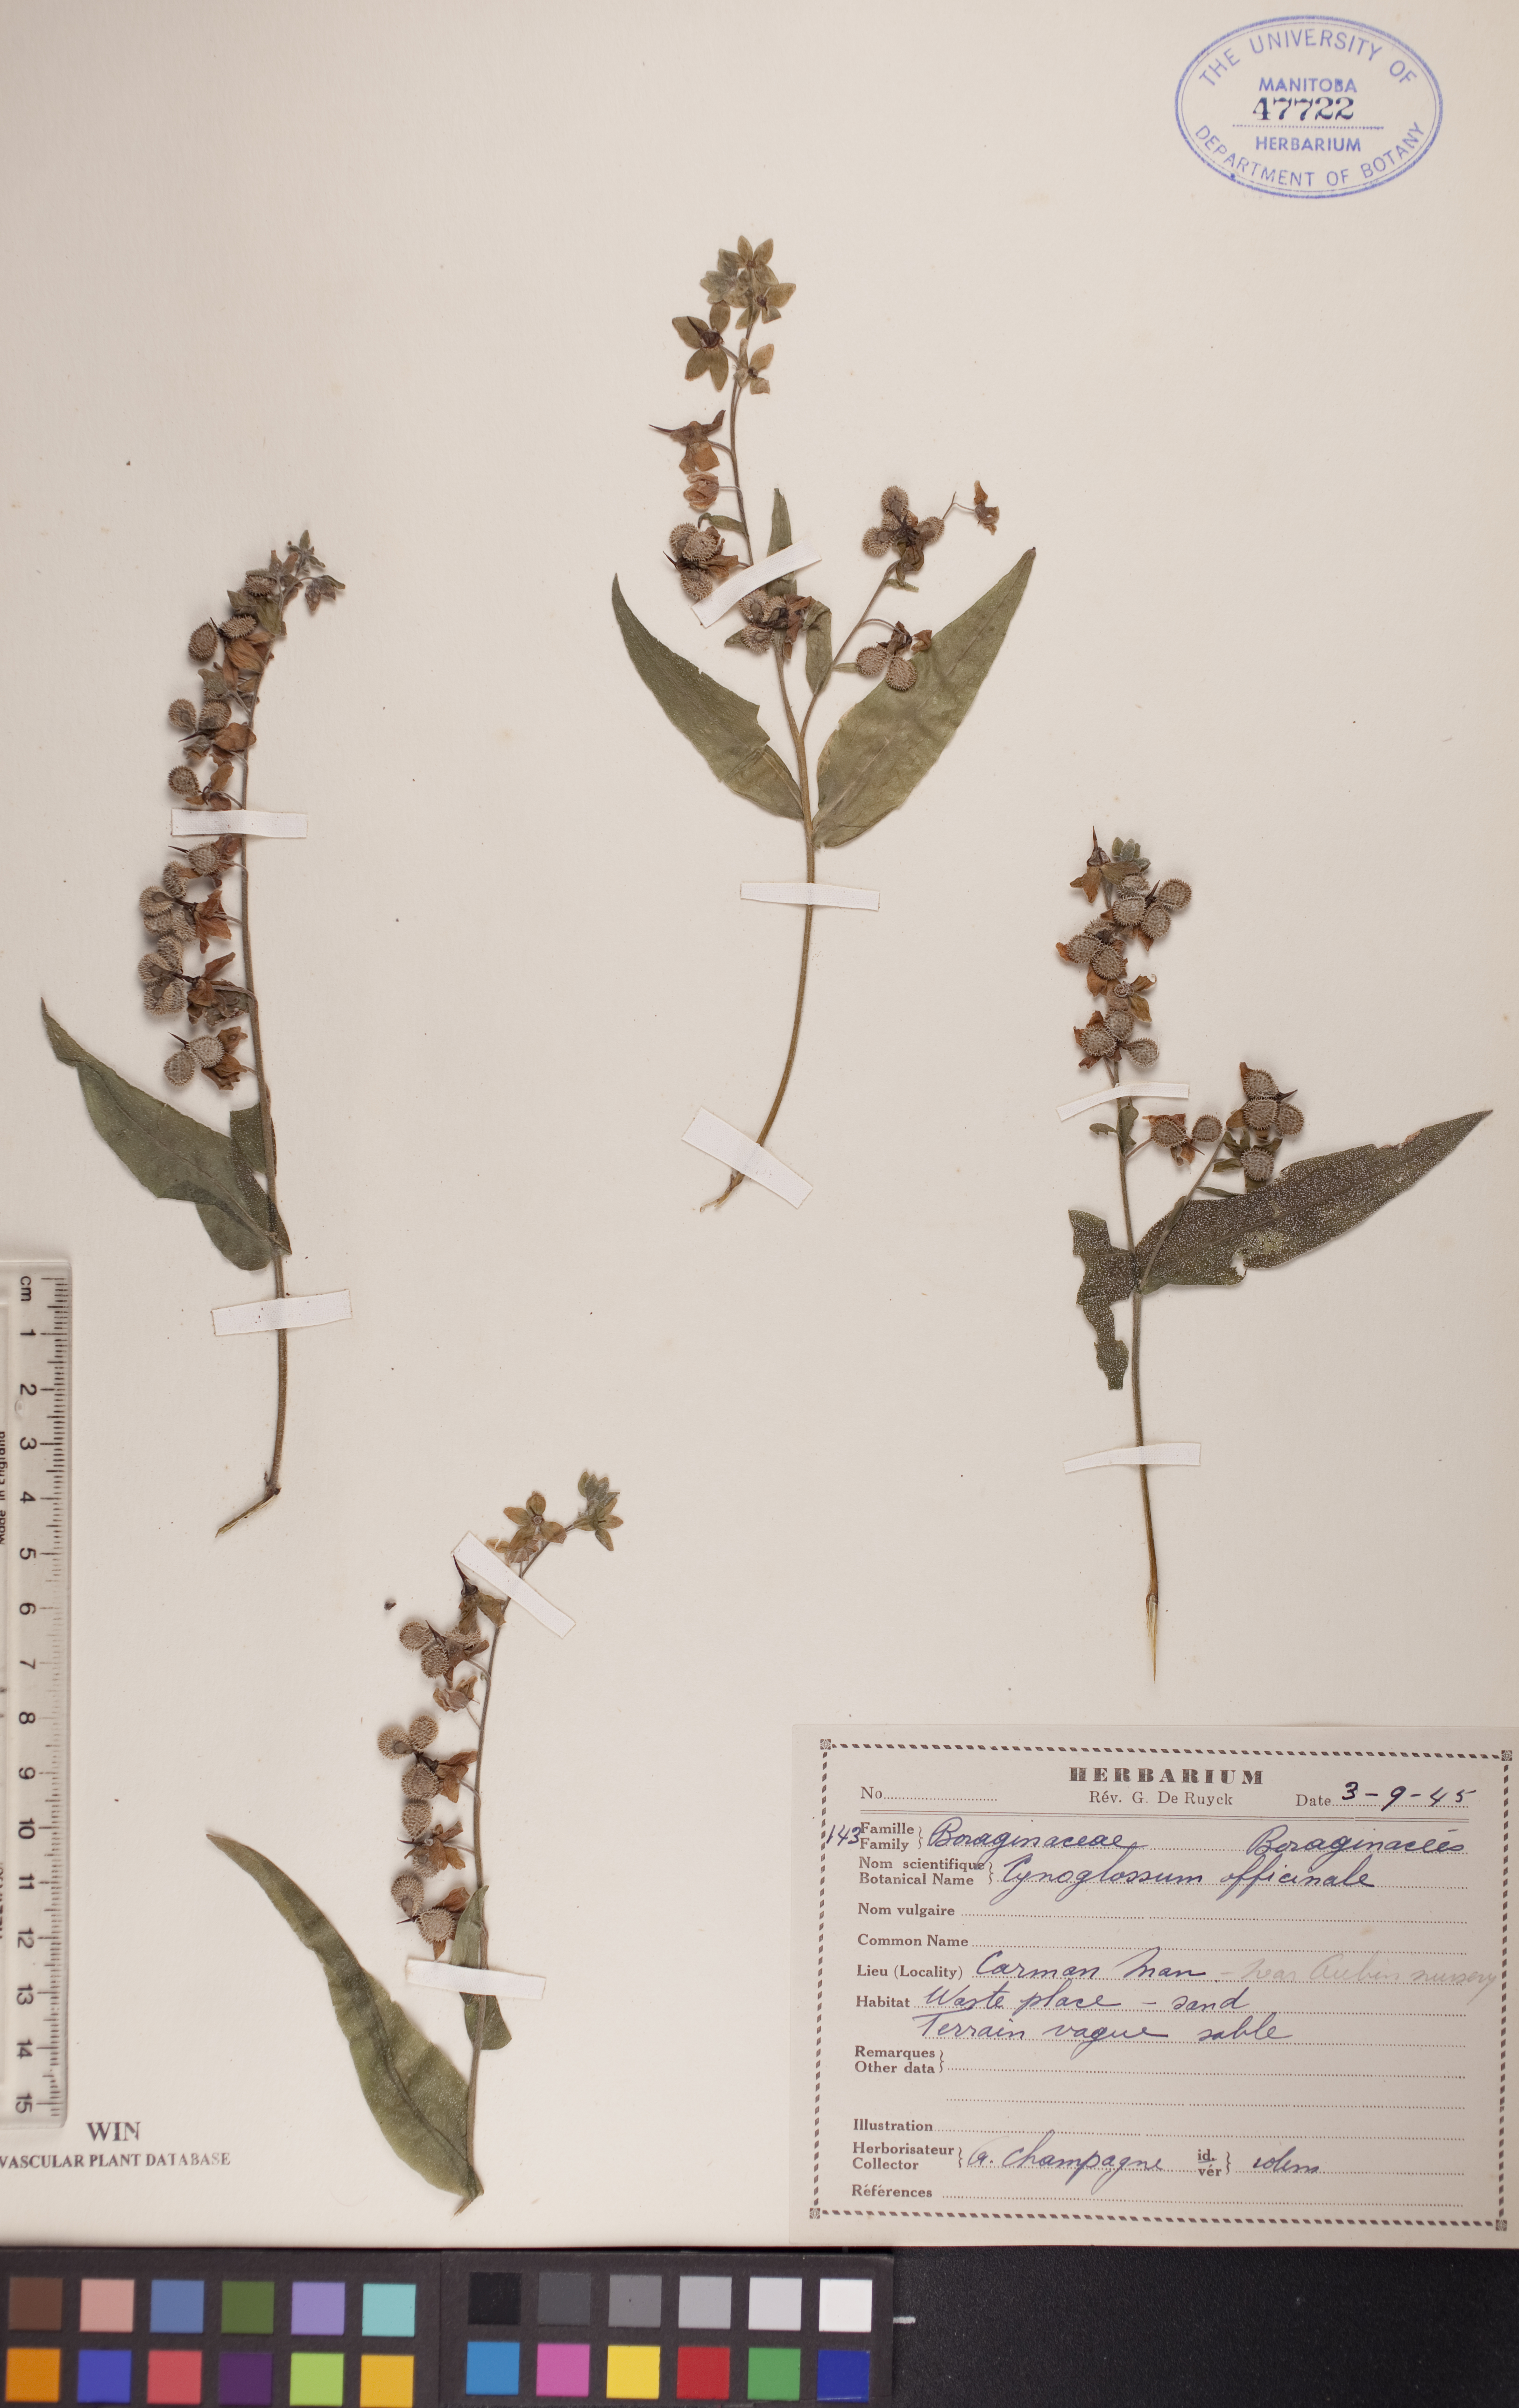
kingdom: Plantae
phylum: Tracheophyta
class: Magnoliopsida
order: Boraginales
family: Boraginaceae
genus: Cynoglossum
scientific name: Cynoglossum officinale
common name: Hound's-tongue
